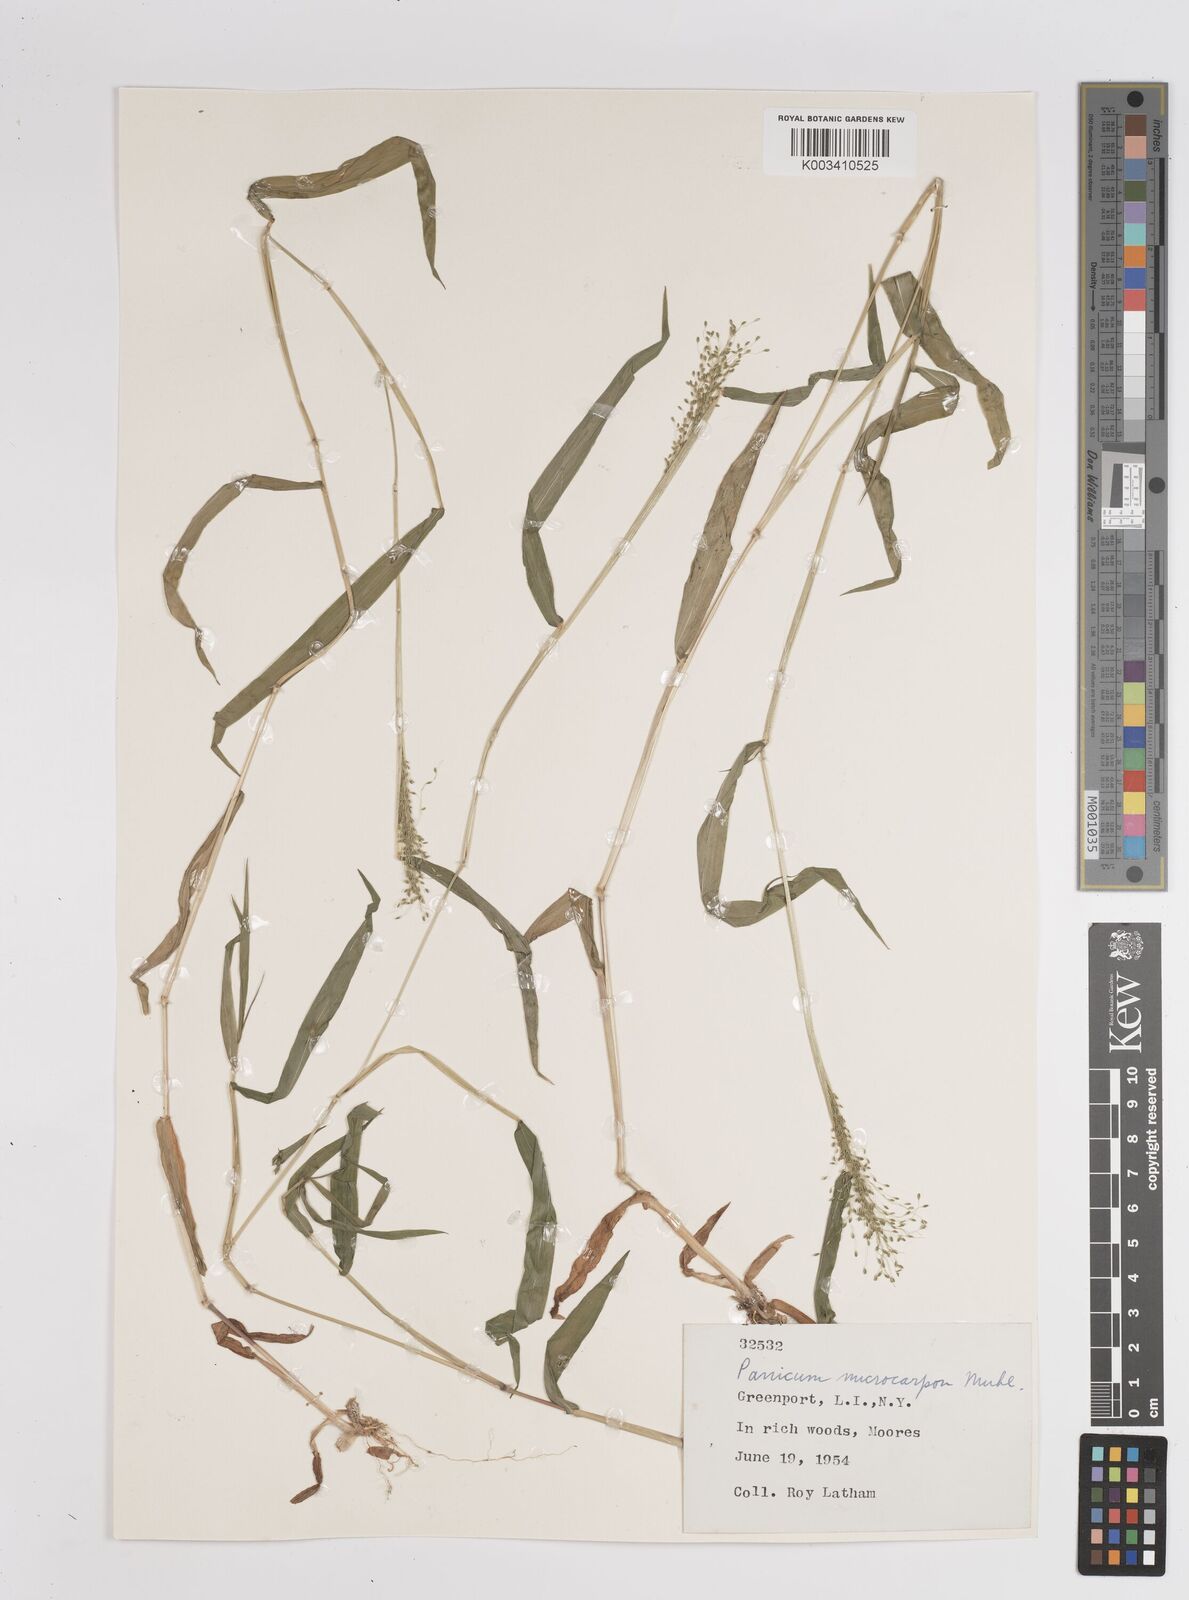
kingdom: Plantae
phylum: Tracheophyta
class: Liliopsida
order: Poales
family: Poaceae
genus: Dichanthelium
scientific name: Dichanthelium polyanthes
